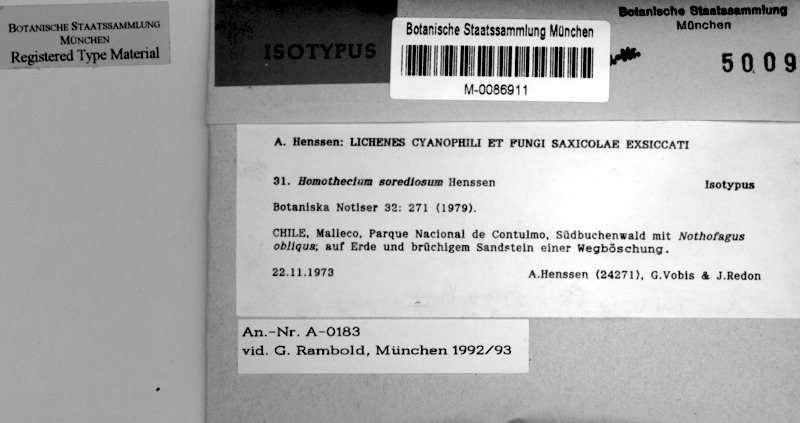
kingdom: Fungi
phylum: Ascomycota
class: Lecanoromycetes
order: Peltigerales
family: Pannariaceae
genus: Homothecium
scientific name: Homothecium
